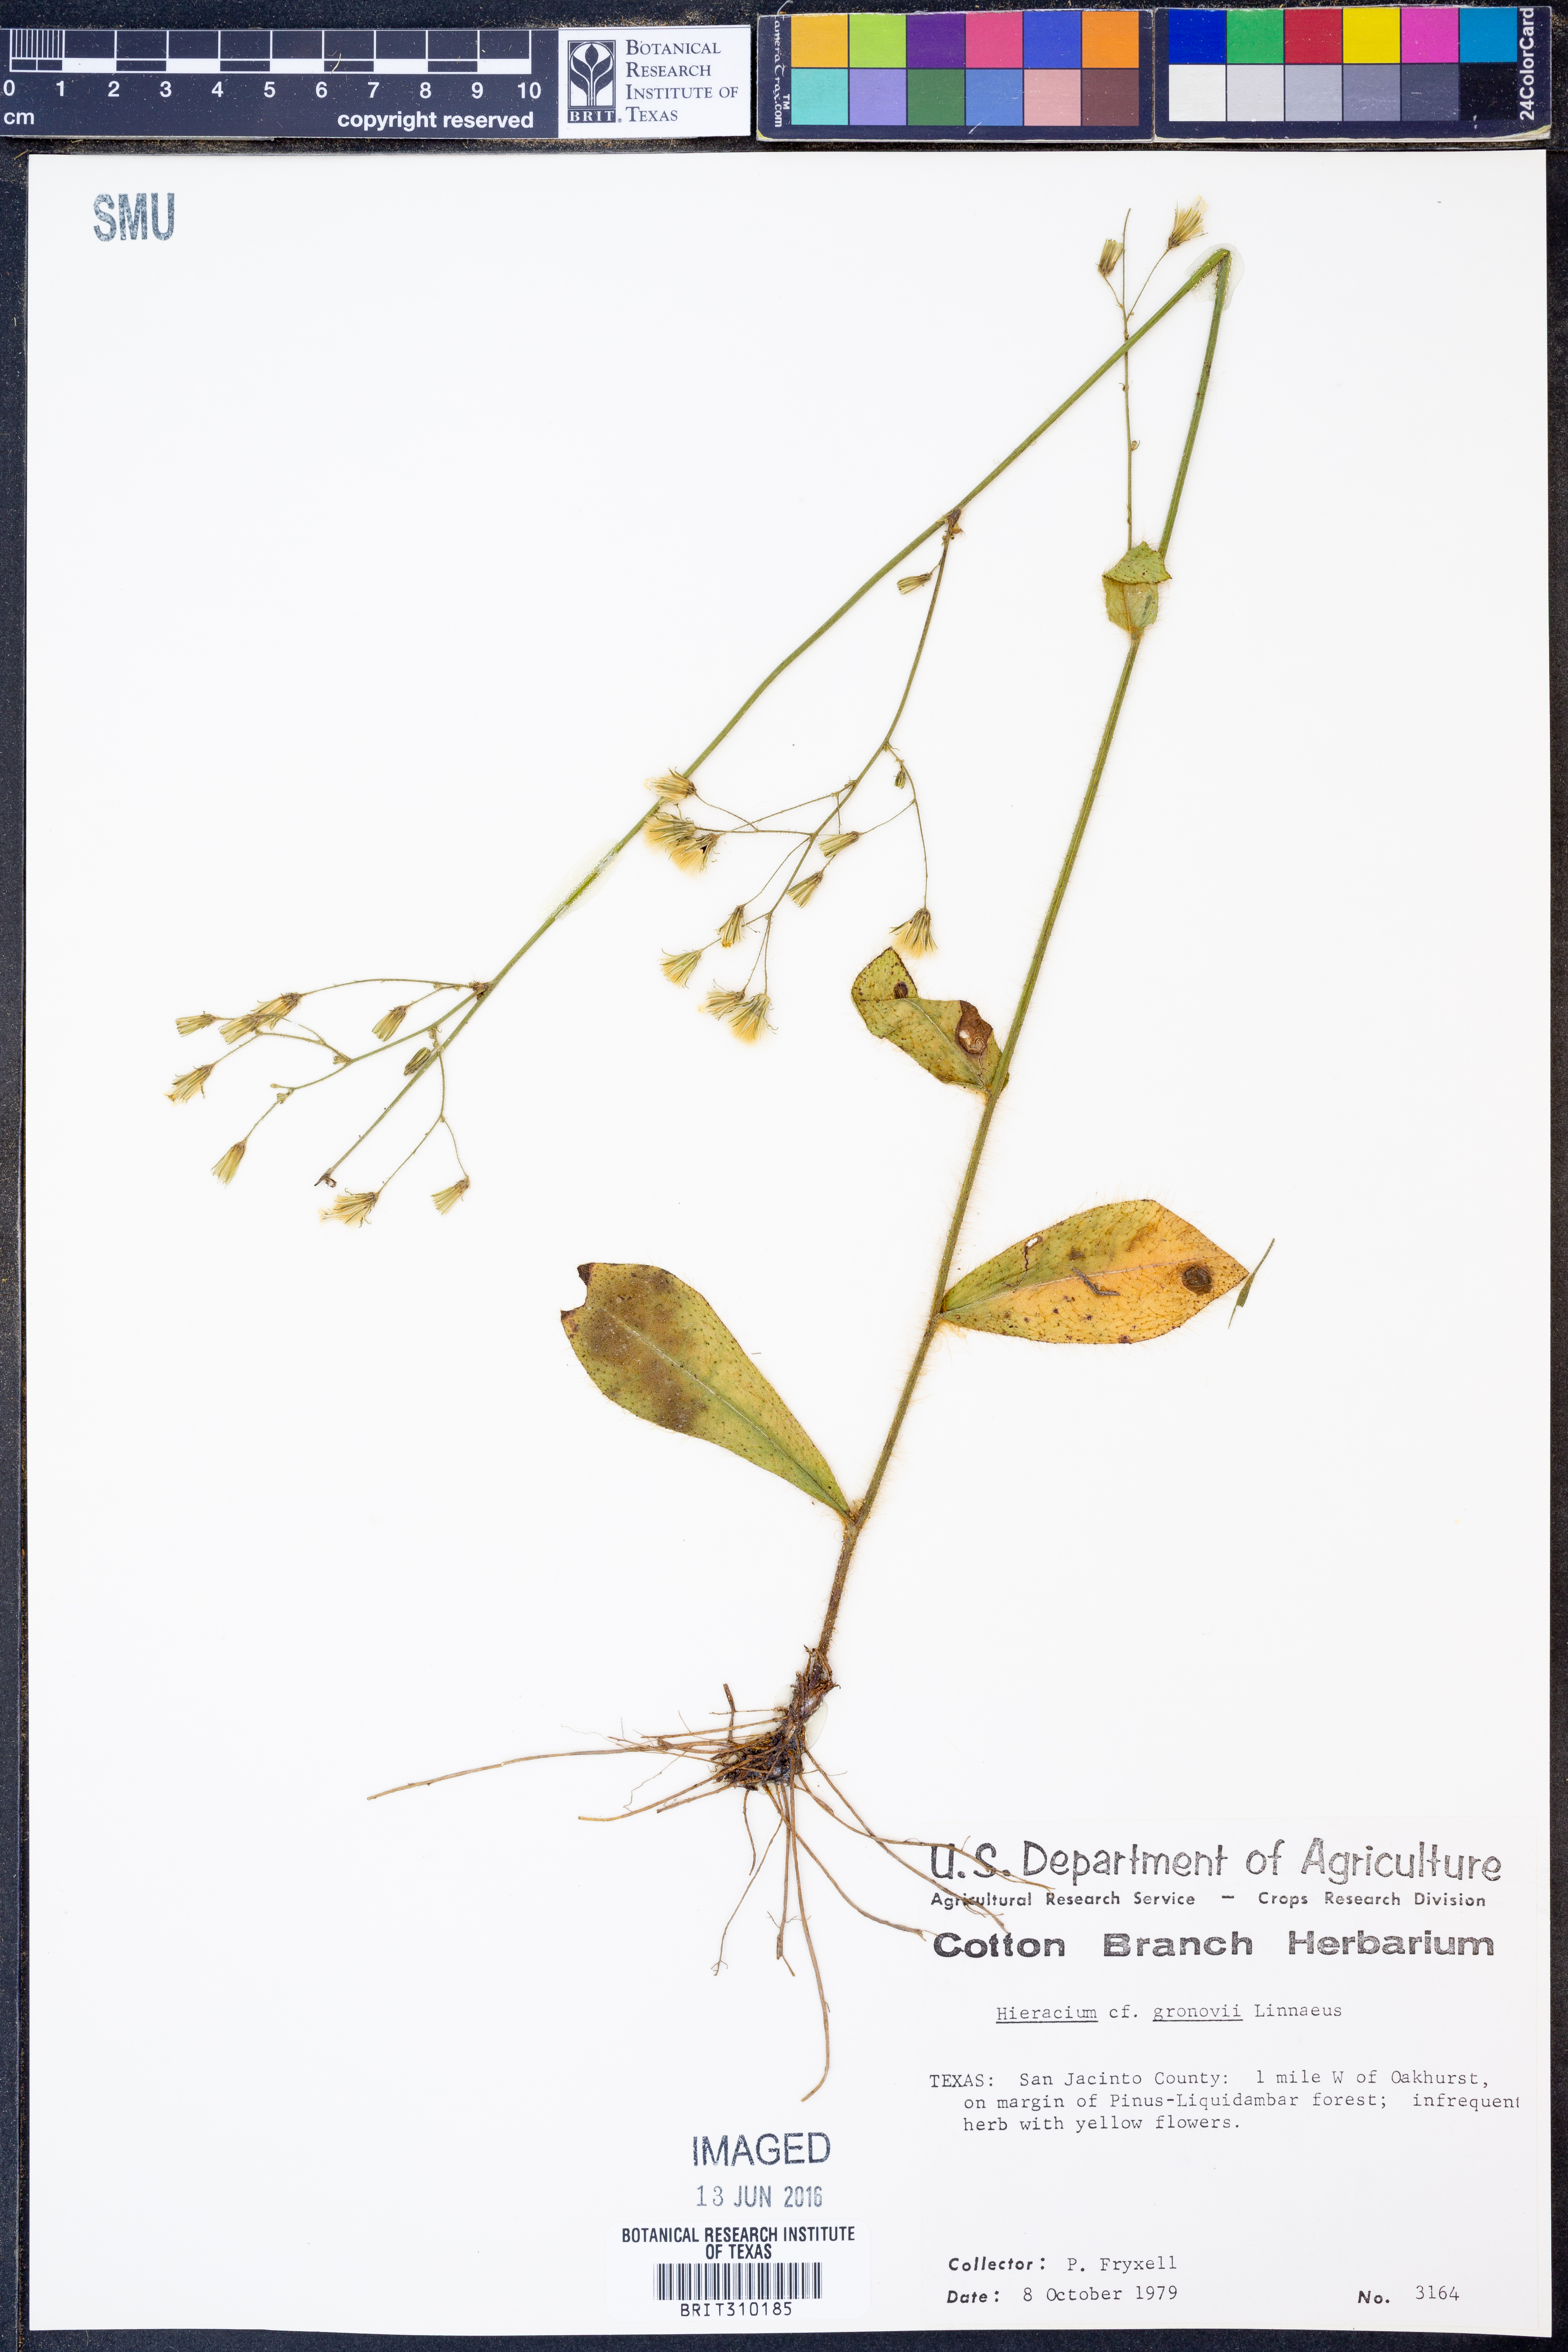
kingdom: Plantae
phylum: Tracheophyta
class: Magnoliopsida
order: Asterales
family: Asteraceae
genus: Hieracium
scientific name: Hieracium gronovii
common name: Beaked hawkweed
